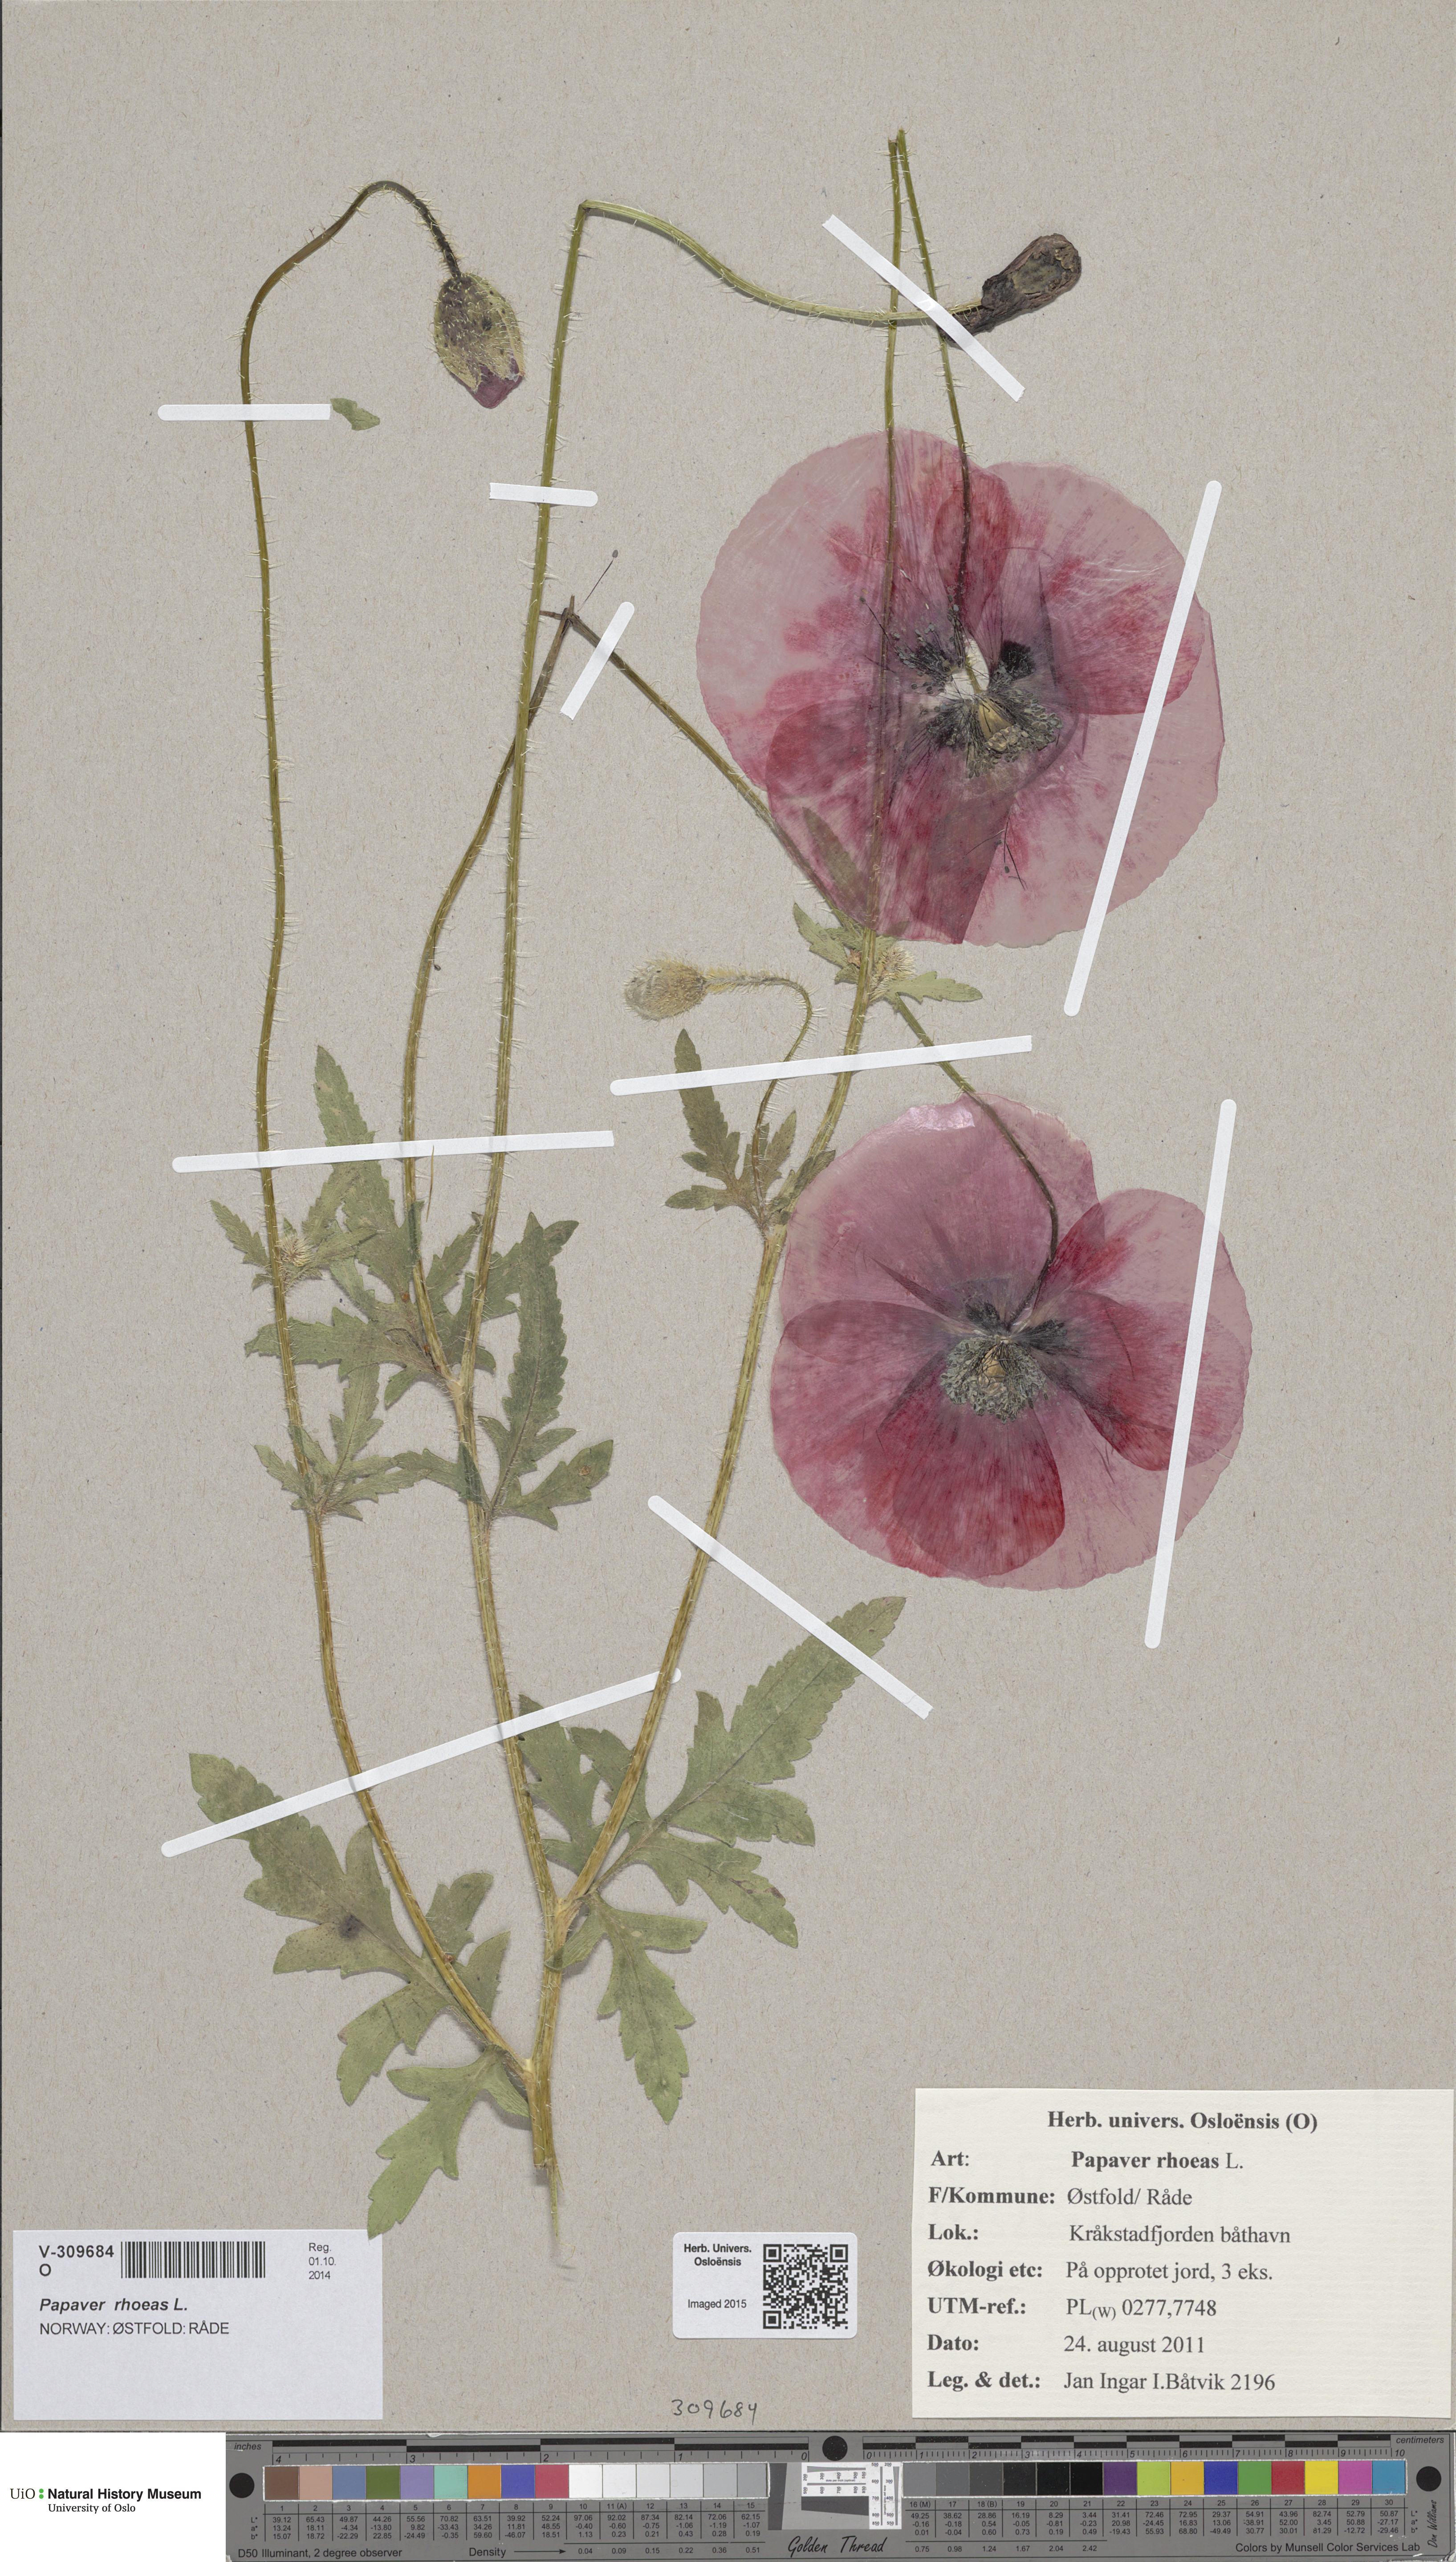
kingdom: Plantae
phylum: Tracheophyta
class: Magnoliopsida
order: Ranunculales
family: Papaveraceae
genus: Papaver
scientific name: Papaver rhoeas
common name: Corn poppy
